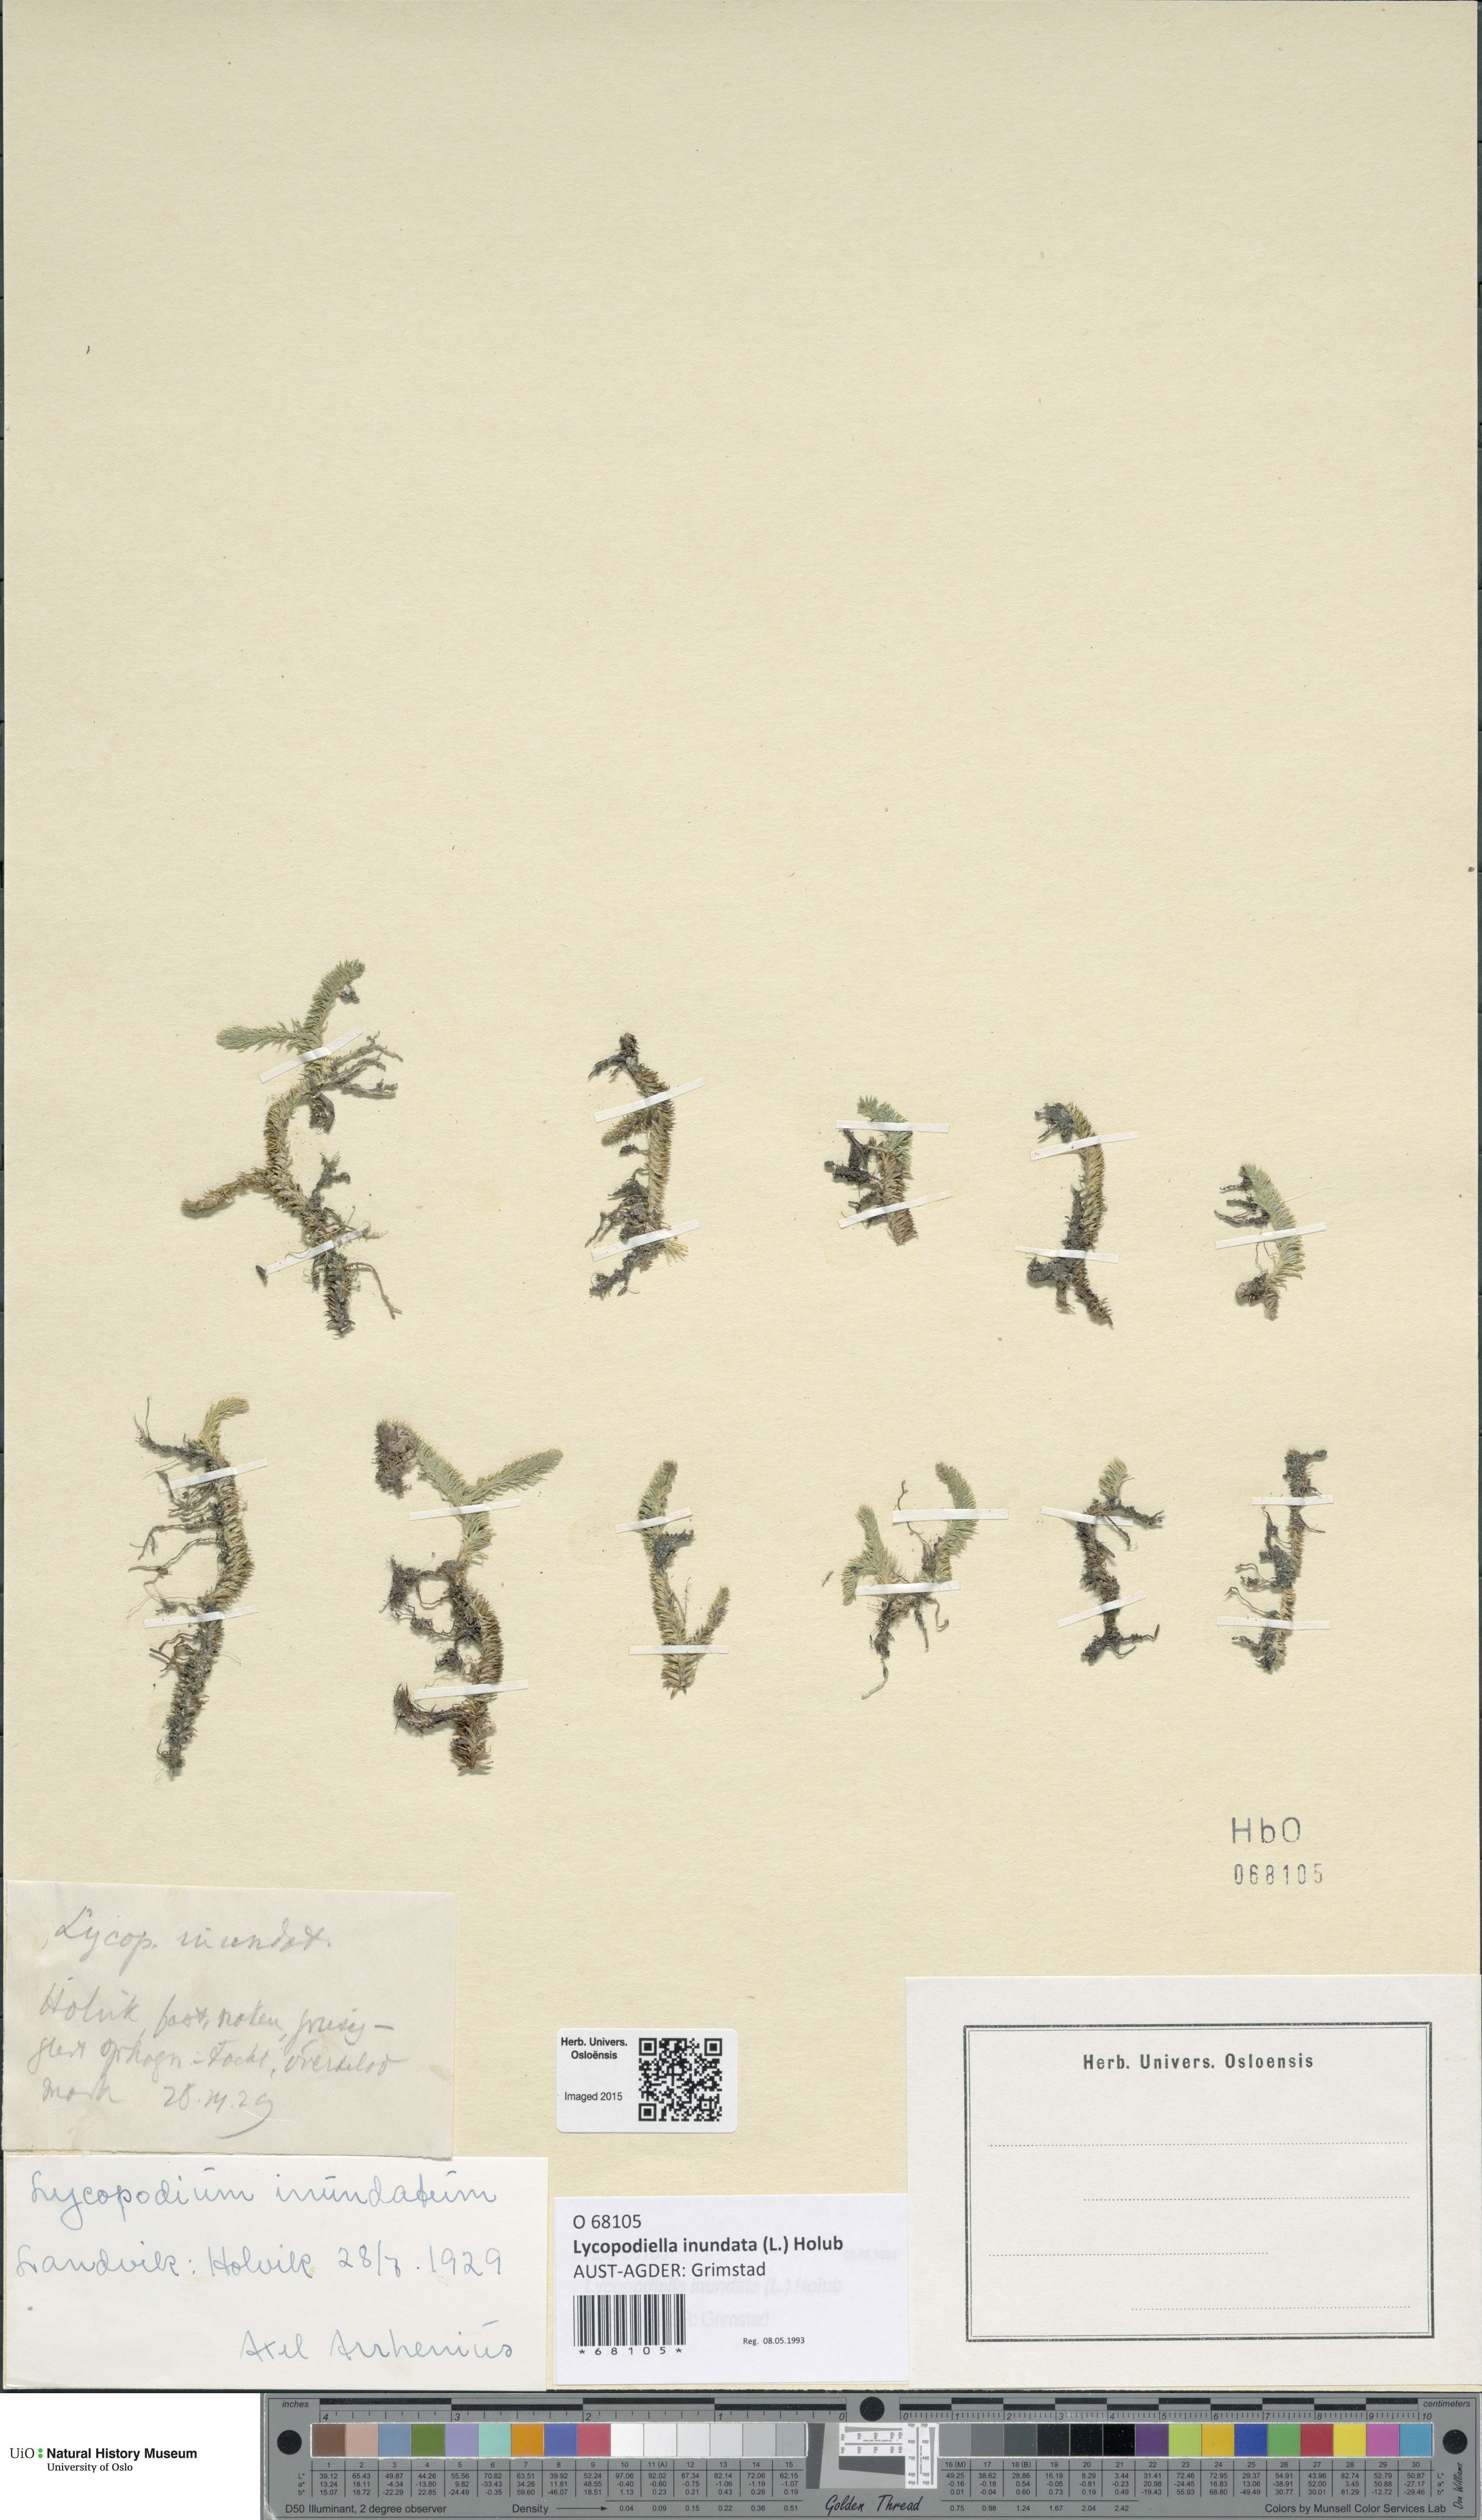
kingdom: Plantae
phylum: Tracheophyta
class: Lycopodiopsida
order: Lycopodiales
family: Lycopodiaceae
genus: Lycopodiella
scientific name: Lycopodiella inundata
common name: Marsh clubmoss
